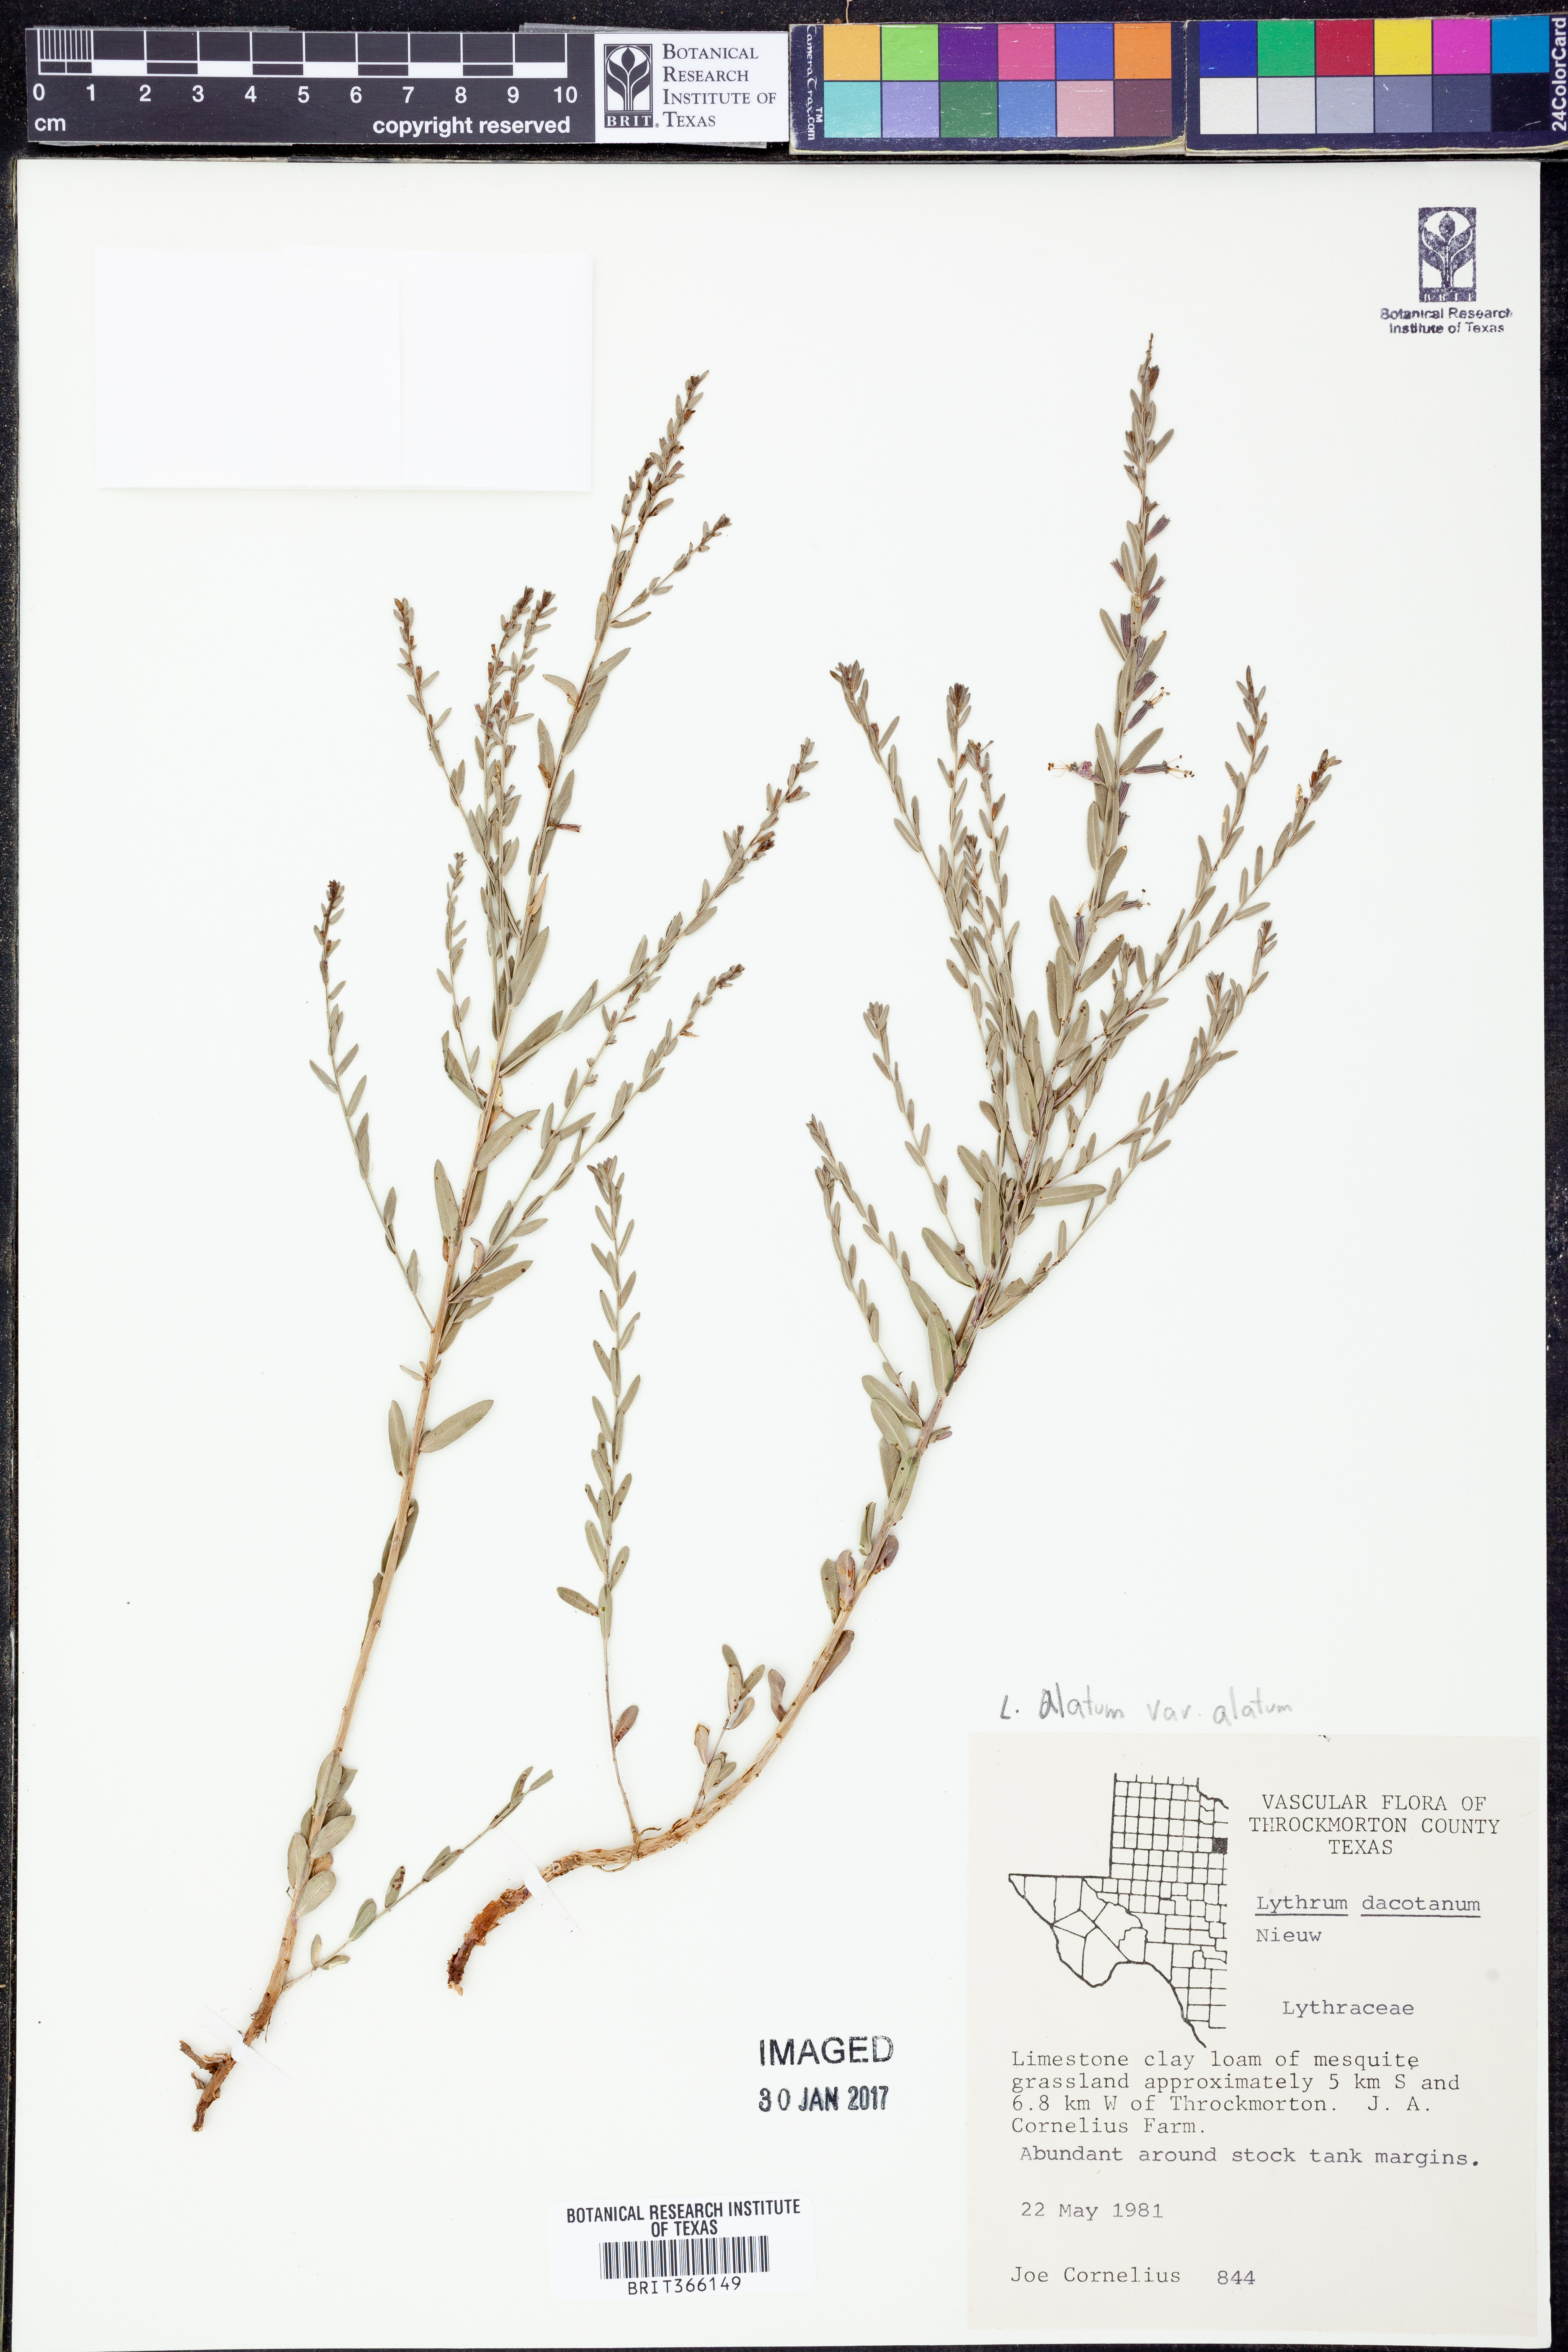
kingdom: Plantae
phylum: Tracheophyta
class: Magnoliopsida
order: Myrtales
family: Lythraceae
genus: Lythrum
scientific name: Lythrum alatum
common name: Winged loosestrife
